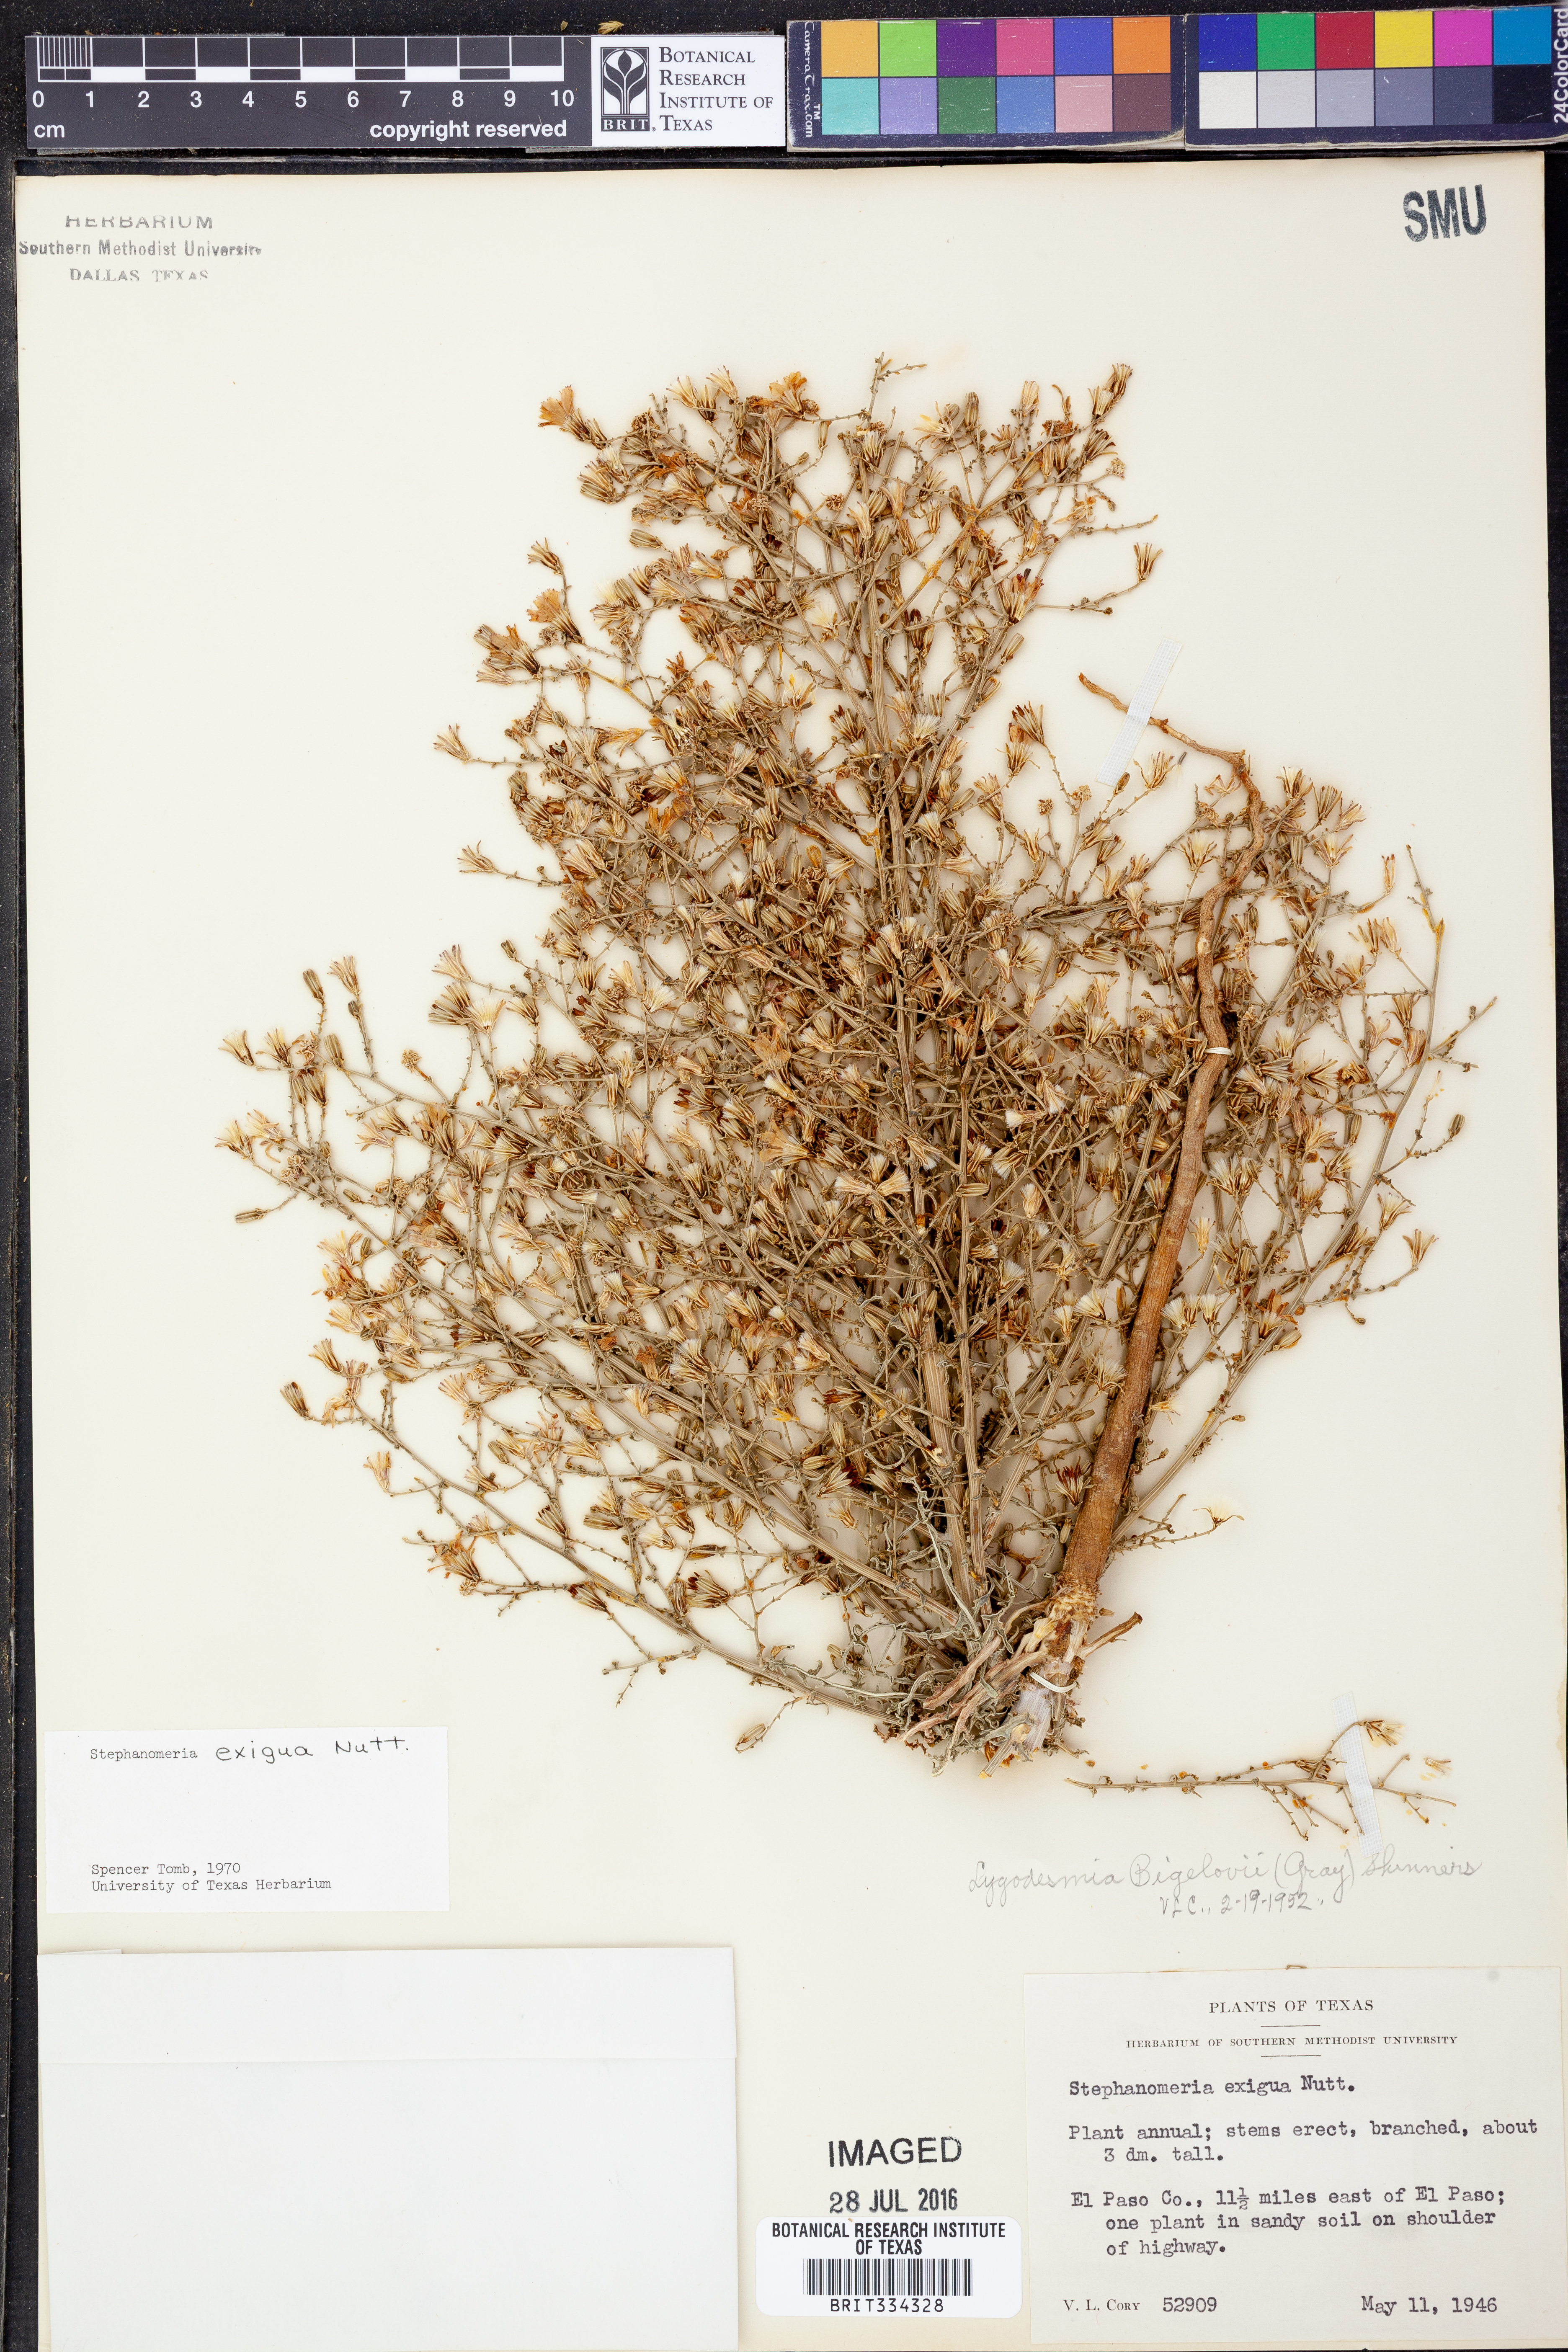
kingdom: Plantae
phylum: Tracheophyta
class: Magnoliopsida
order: Asterales
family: Asteraceae
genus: Stephanomeria
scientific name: Stephanomeria exigua
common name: Small wirelettuce
